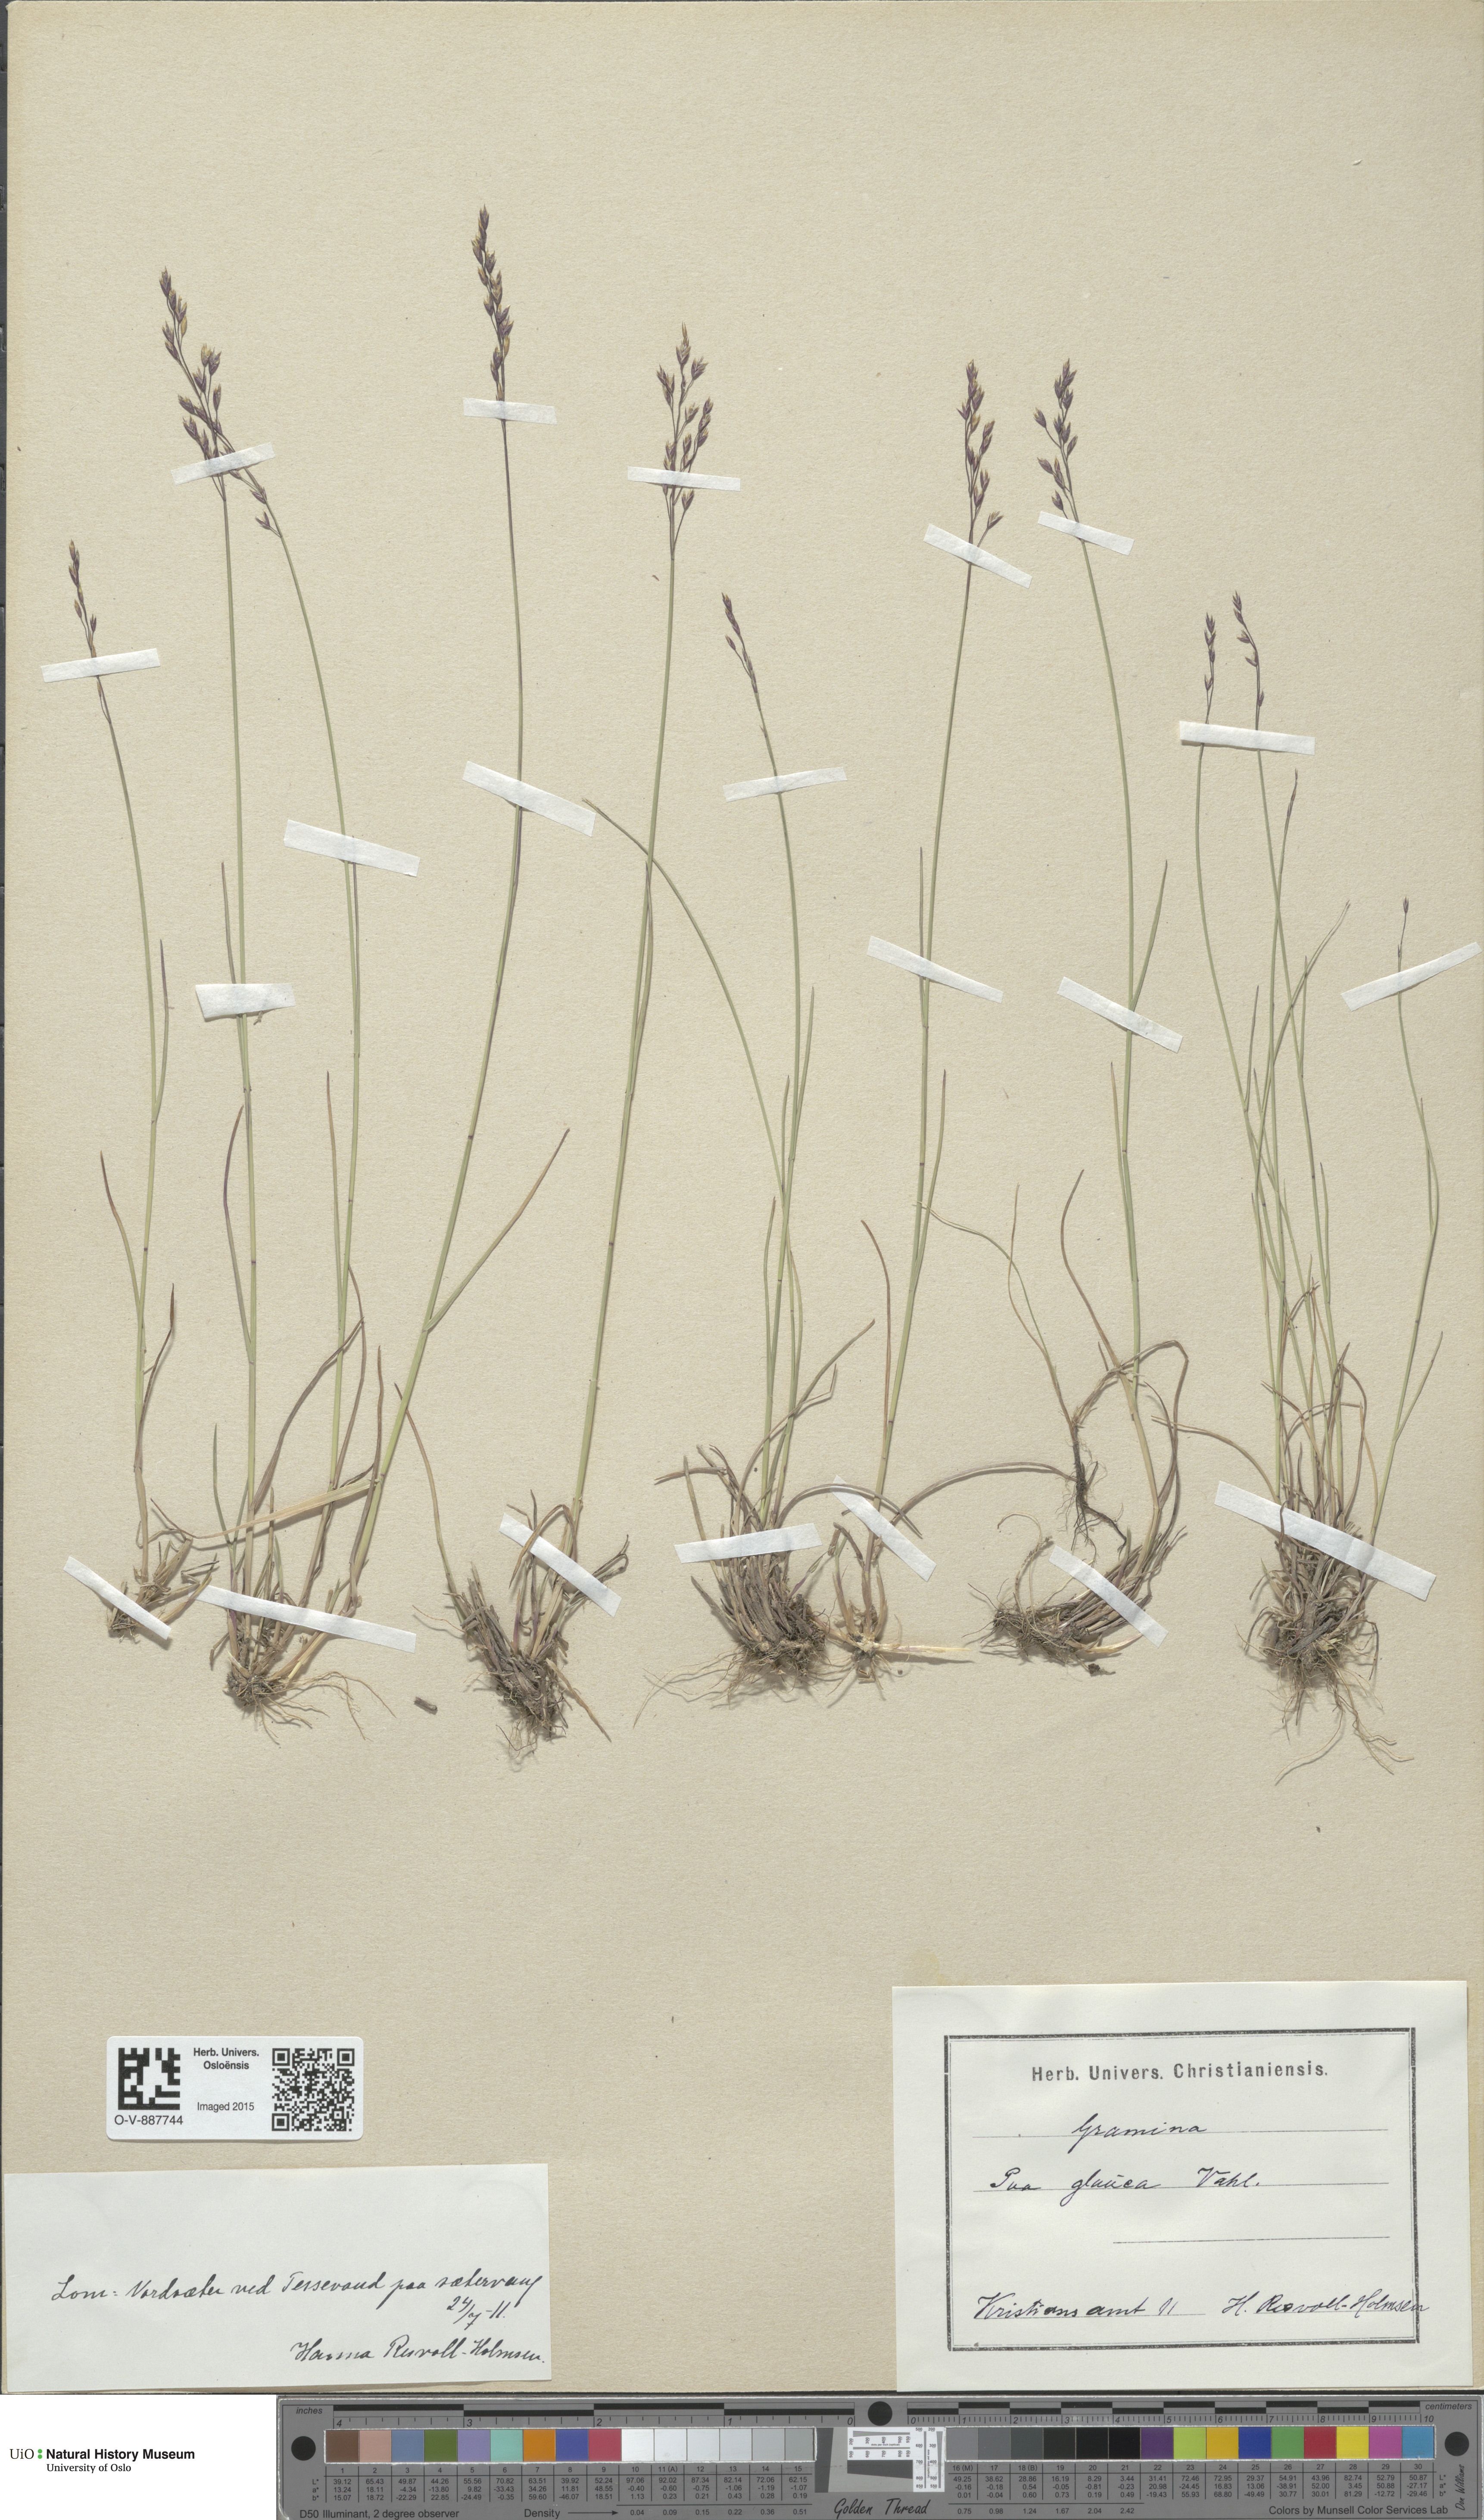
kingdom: Plantae
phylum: Tracheophyta
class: Liliopsida
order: Poales
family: Poaceae
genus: Poa
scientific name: Poa glauca
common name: Glaucous bluegrass
